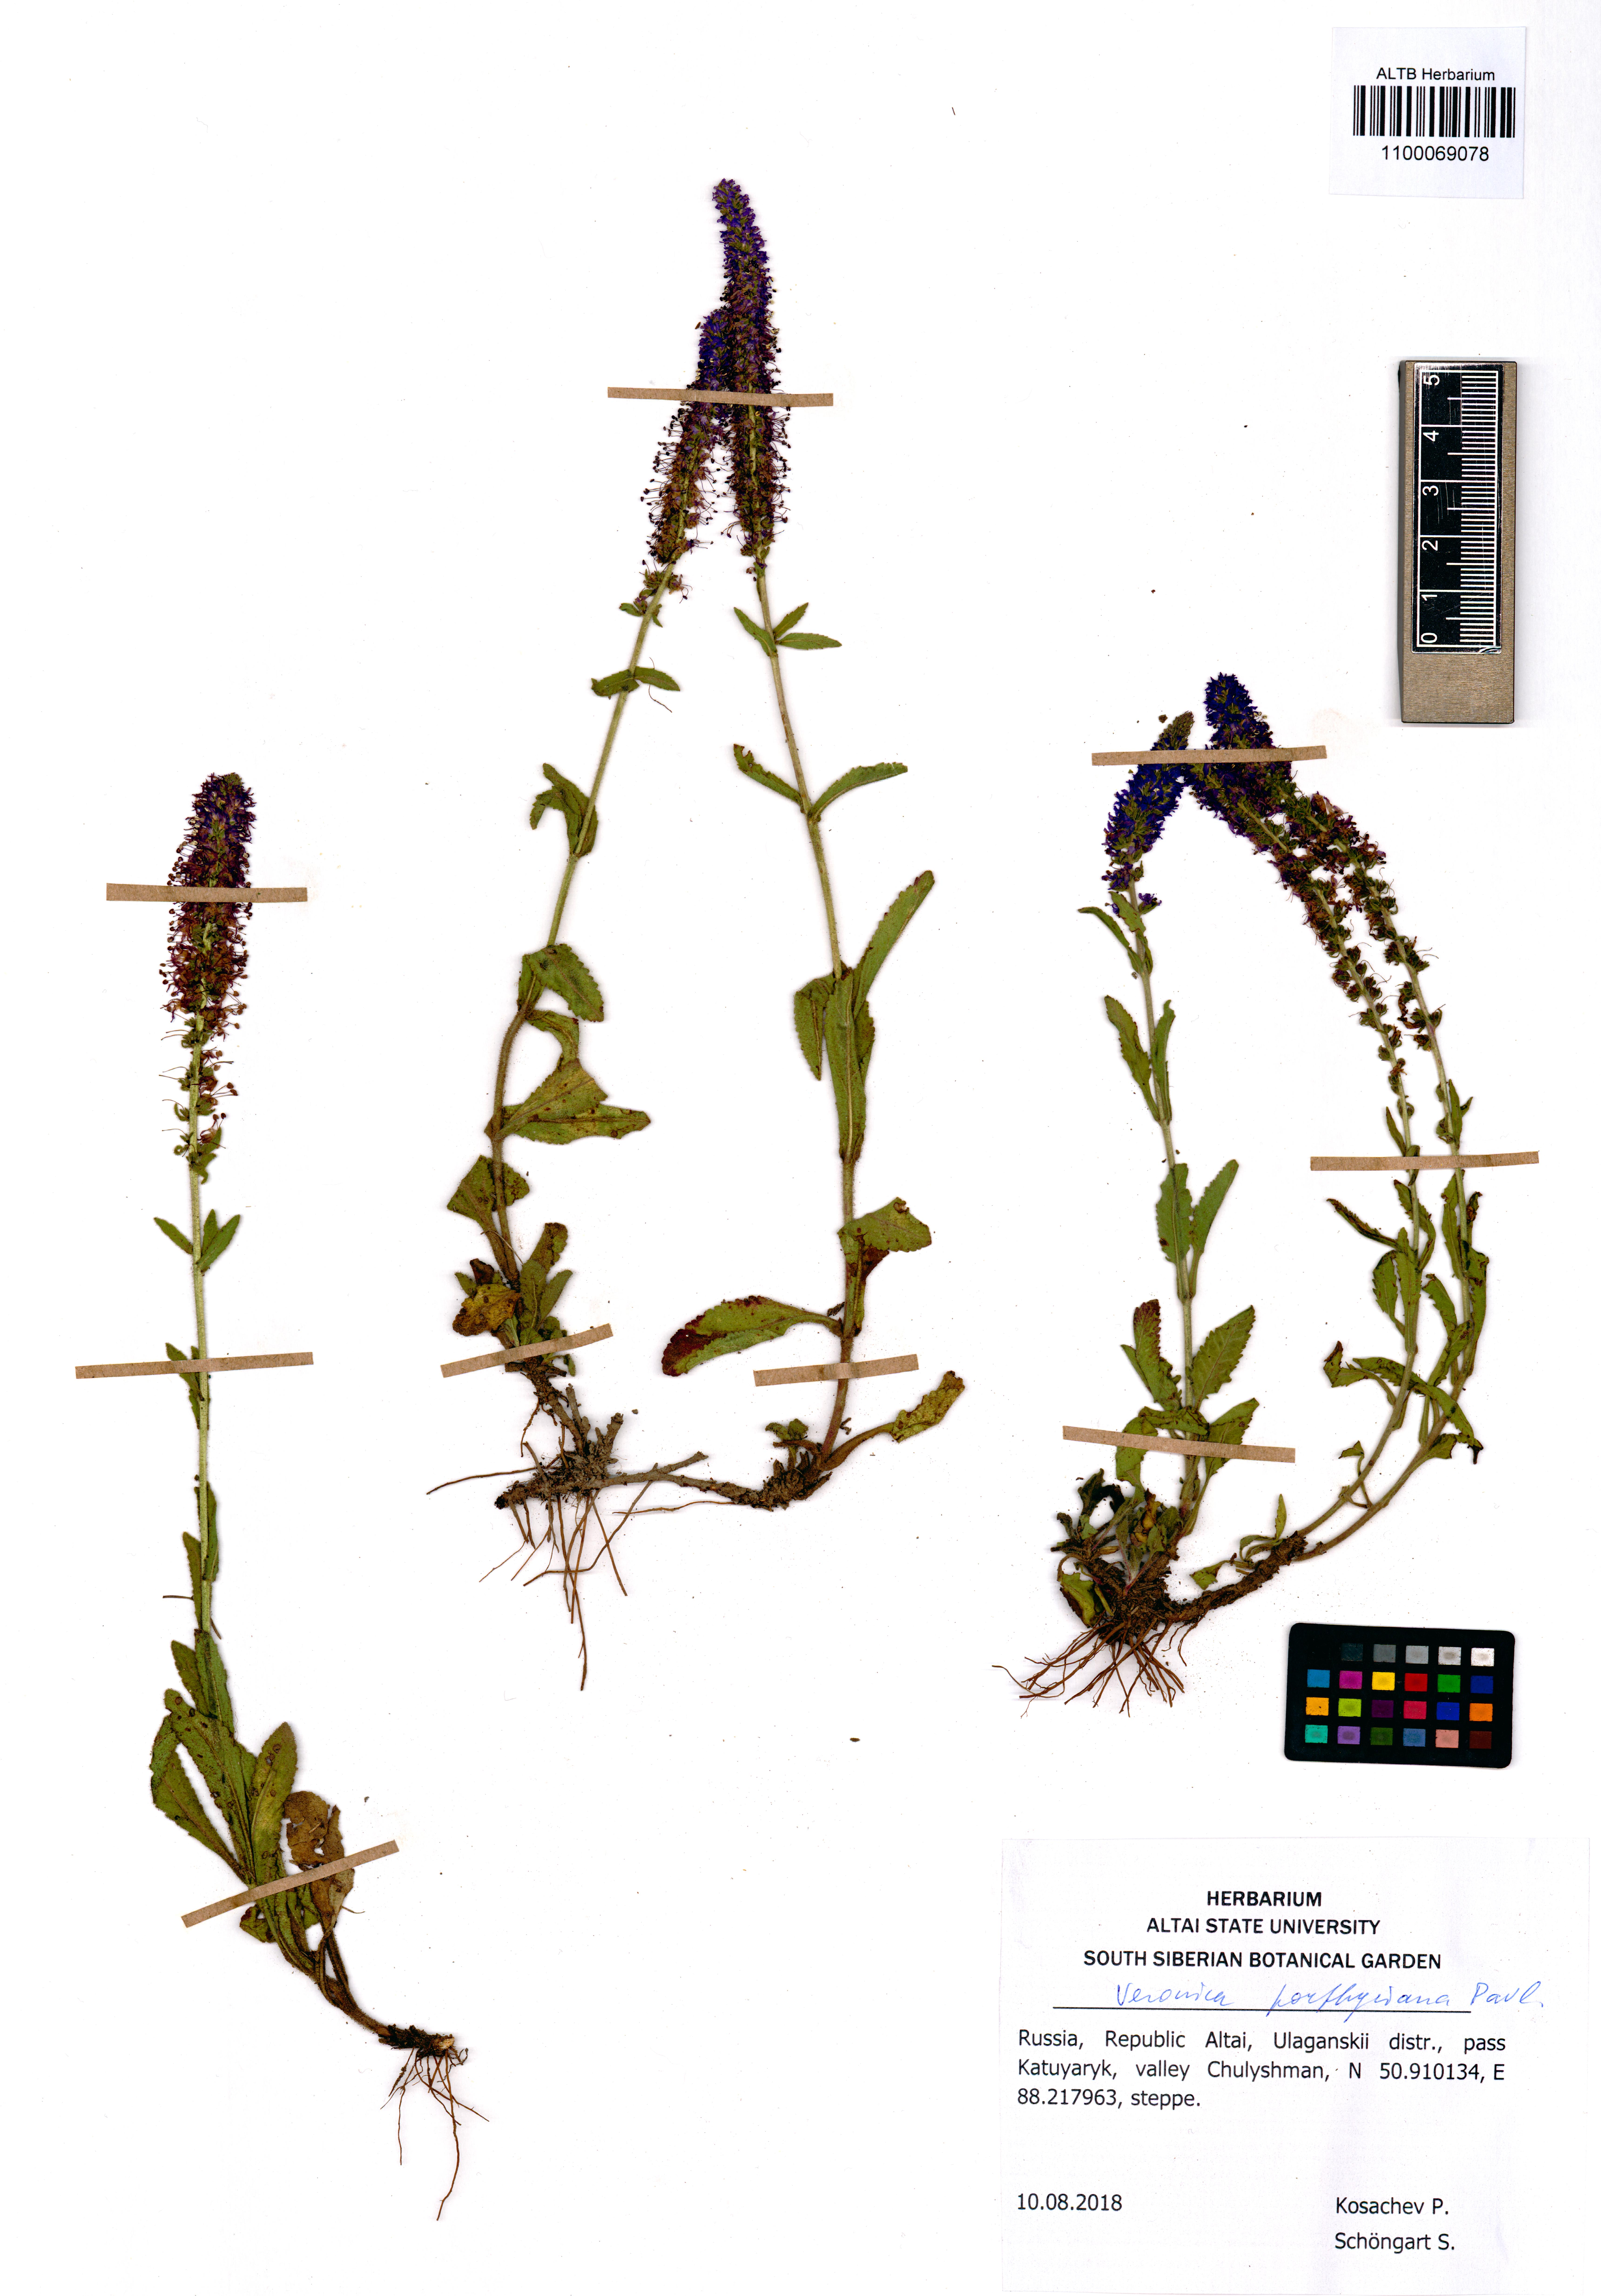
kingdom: Plantae
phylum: Tracheophyta
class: Magnoliopsida
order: Lamiales
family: Plantaginaceae
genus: Veronica
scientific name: Veronica porphyriana
